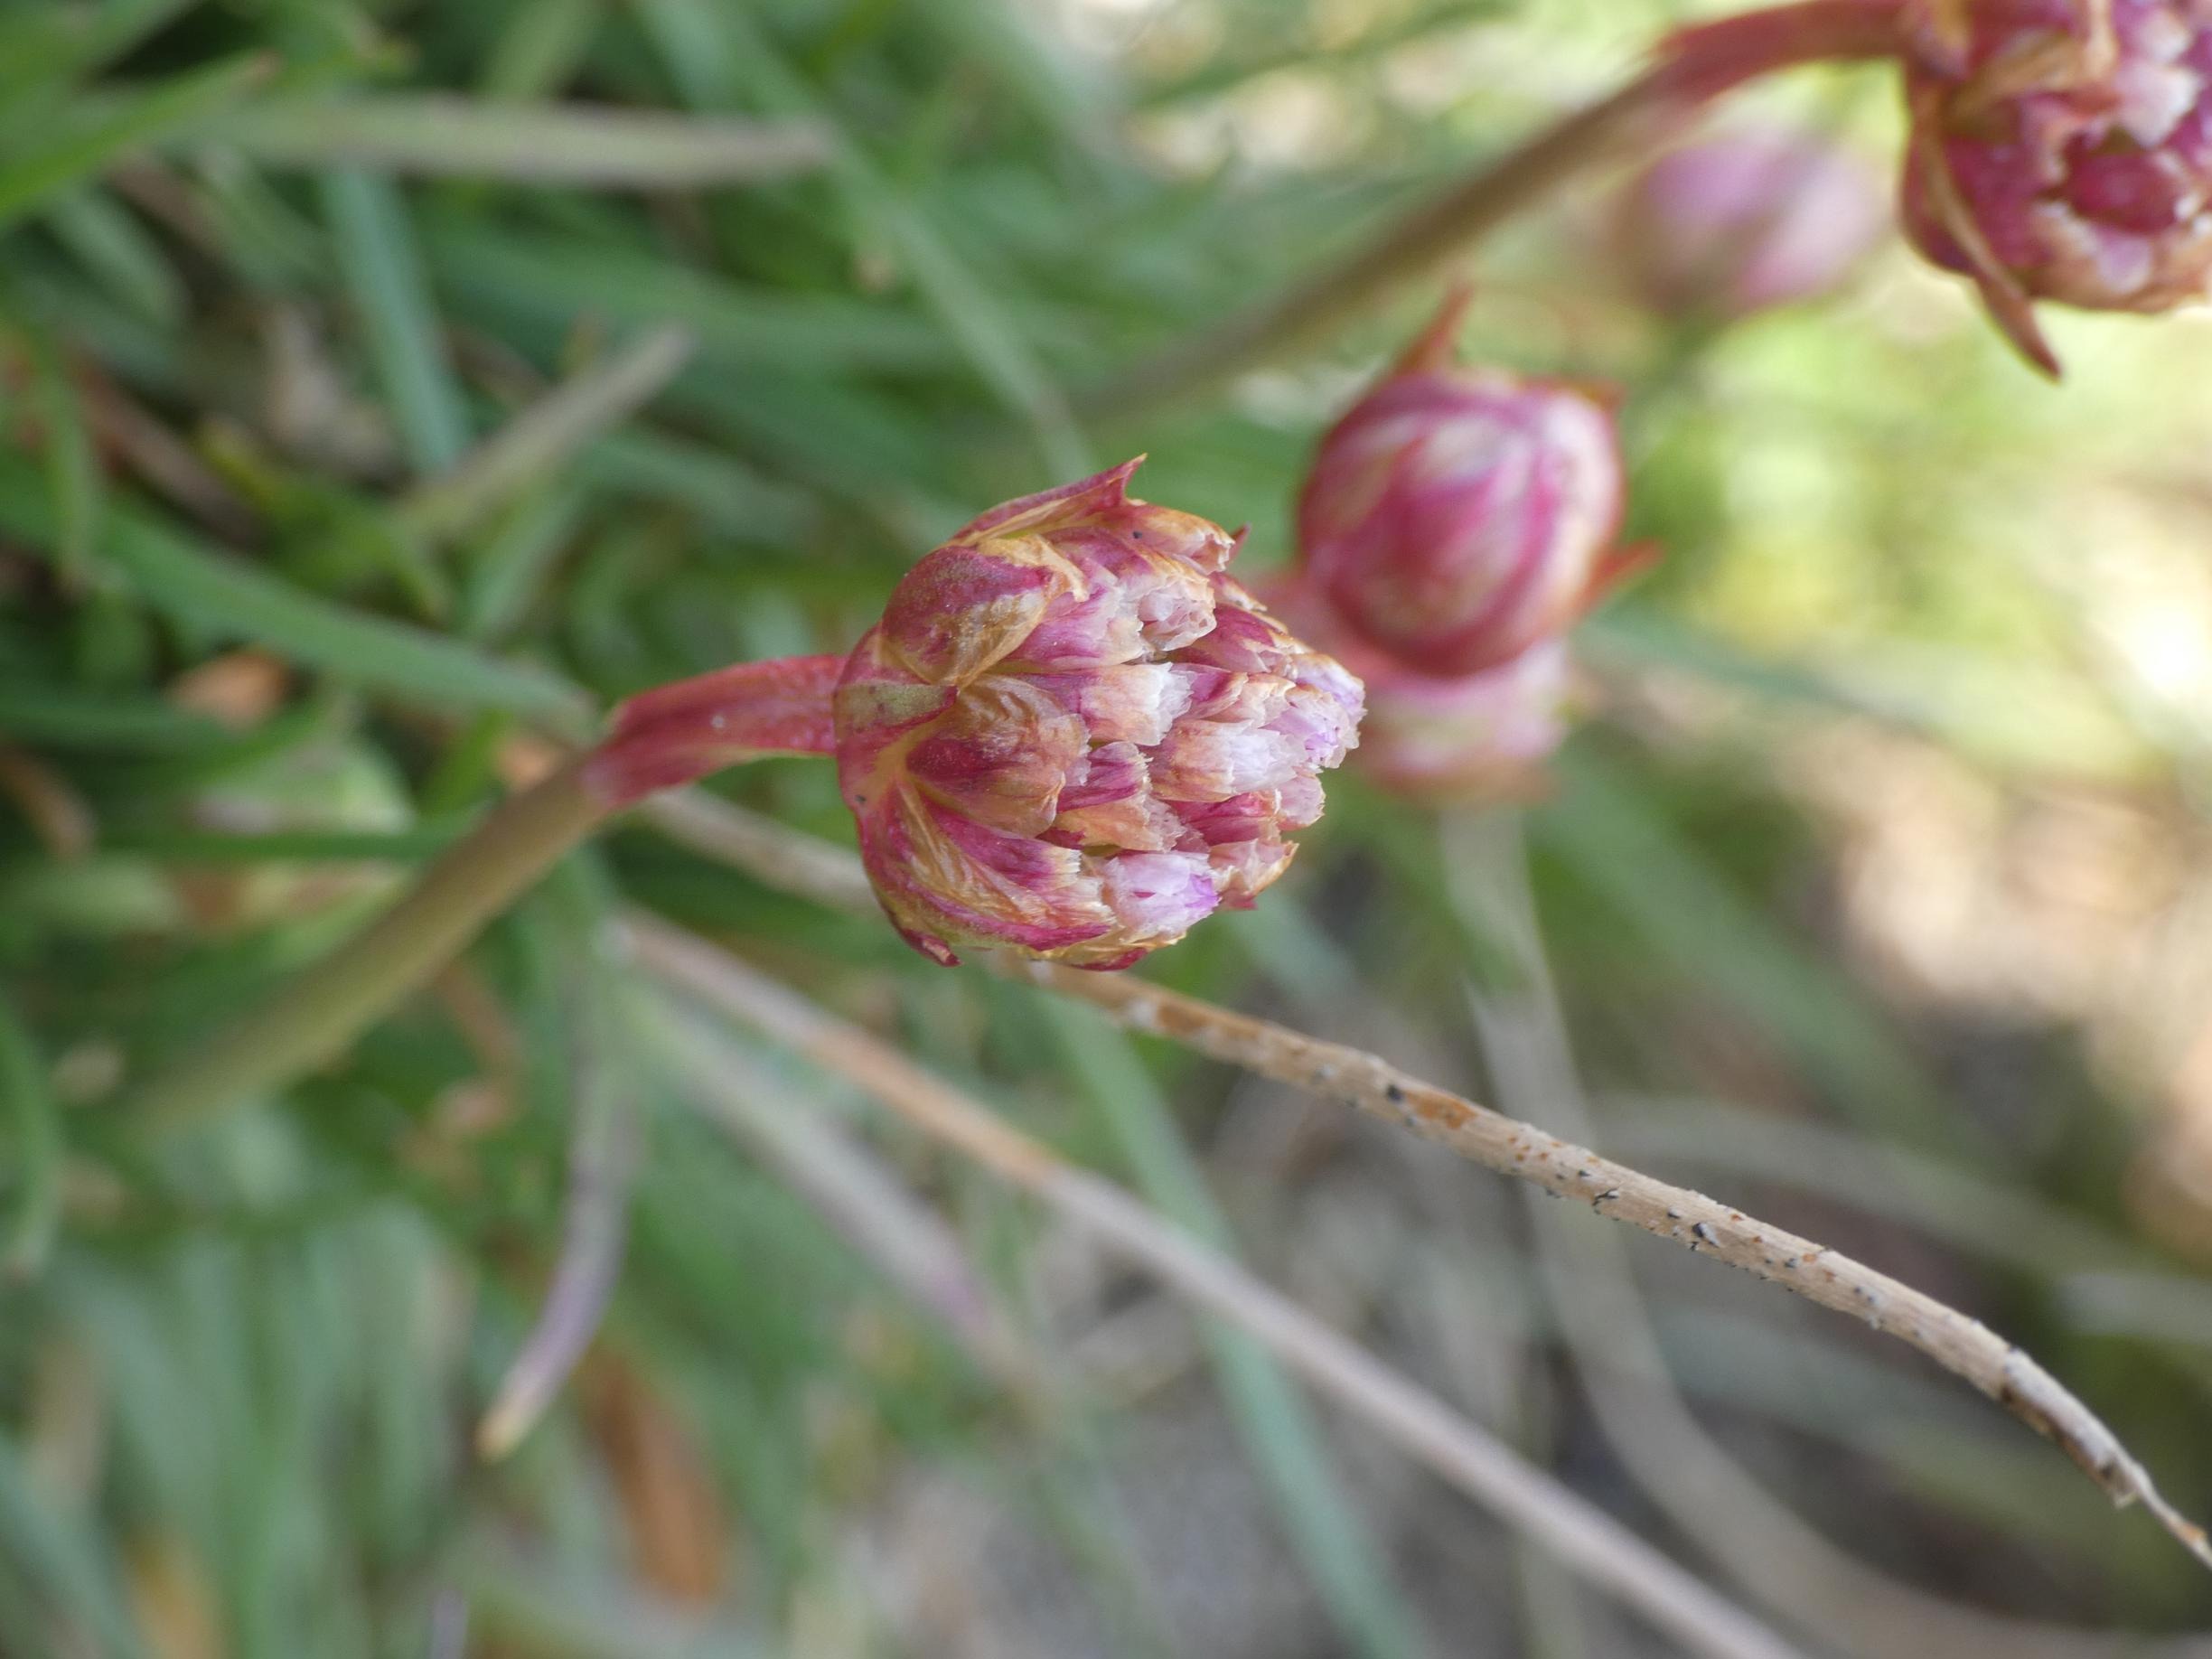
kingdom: Plantae
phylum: Tracheophyta
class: Magnoliopsida
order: Caryophyllales
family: Plumbaginaceae
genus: Armeria
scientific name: Armeria maritima
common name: Engelskgræs
